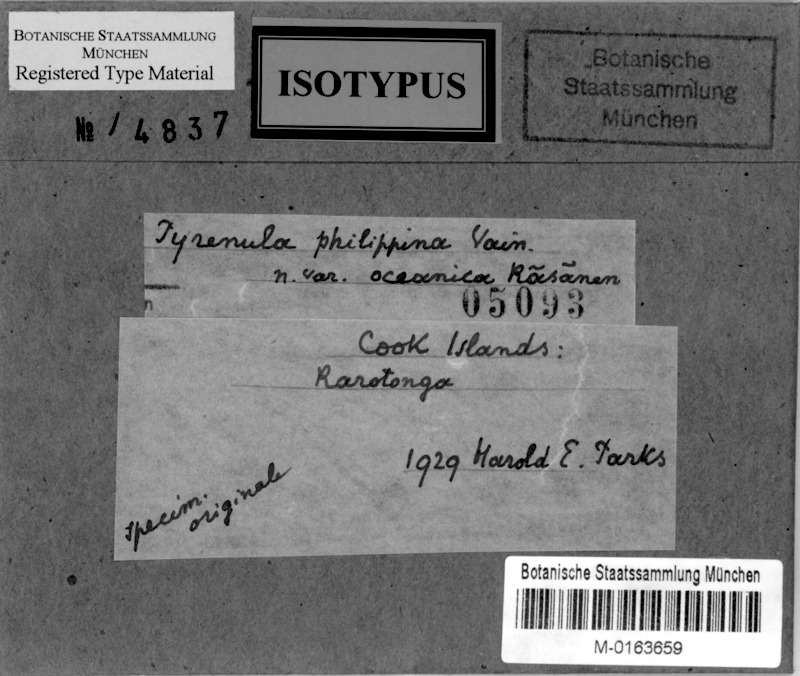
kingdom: Fungi
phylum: Ascomycota
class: Eurotiomycetes
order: Pyrenulales
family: Pyrenulaceae
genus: Pyrenula
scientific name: Pyrenula
